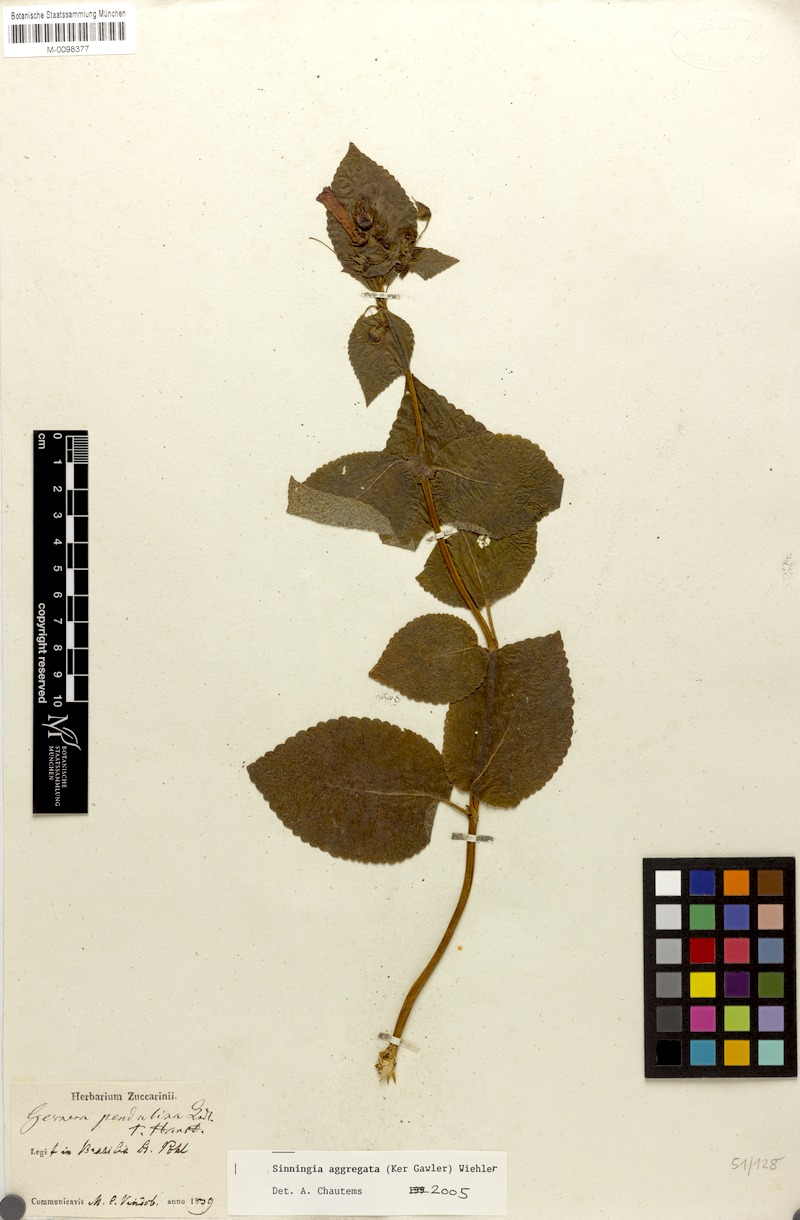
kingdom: Plantae
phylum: Tracheophyta
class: Magnoliopsida
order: Lamiales
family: Gesneriaceae
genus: Sinningia
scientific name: Sinningia aggregata
